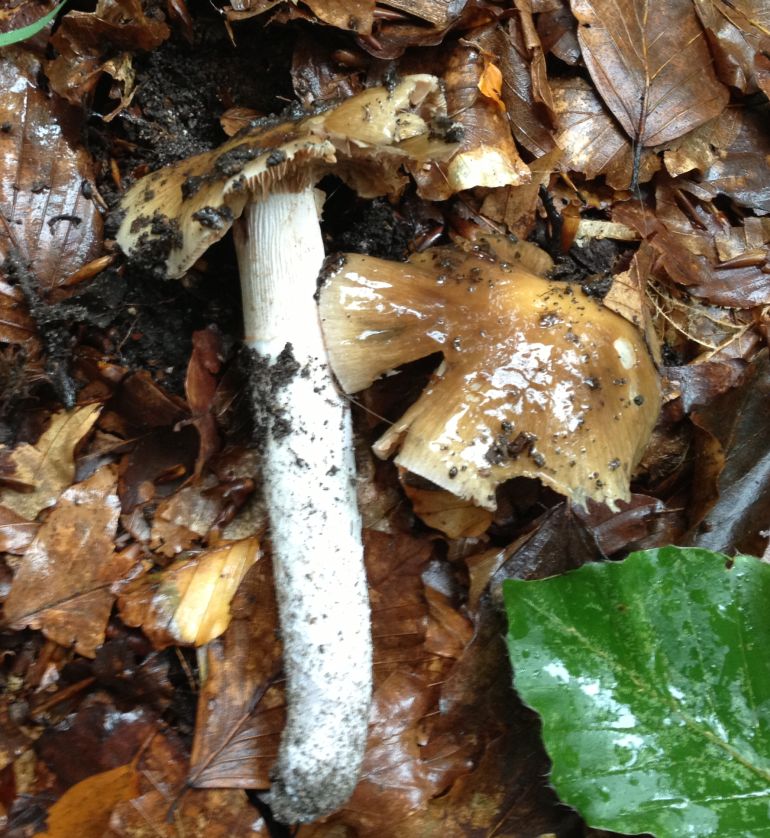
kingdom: Fungi
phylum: Basidiomycota
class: Agaricomycetes
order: Agaricales
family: Cortinariaceae
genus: Cortinarius
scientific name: Cortinarius elatior
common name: høj slørhat
